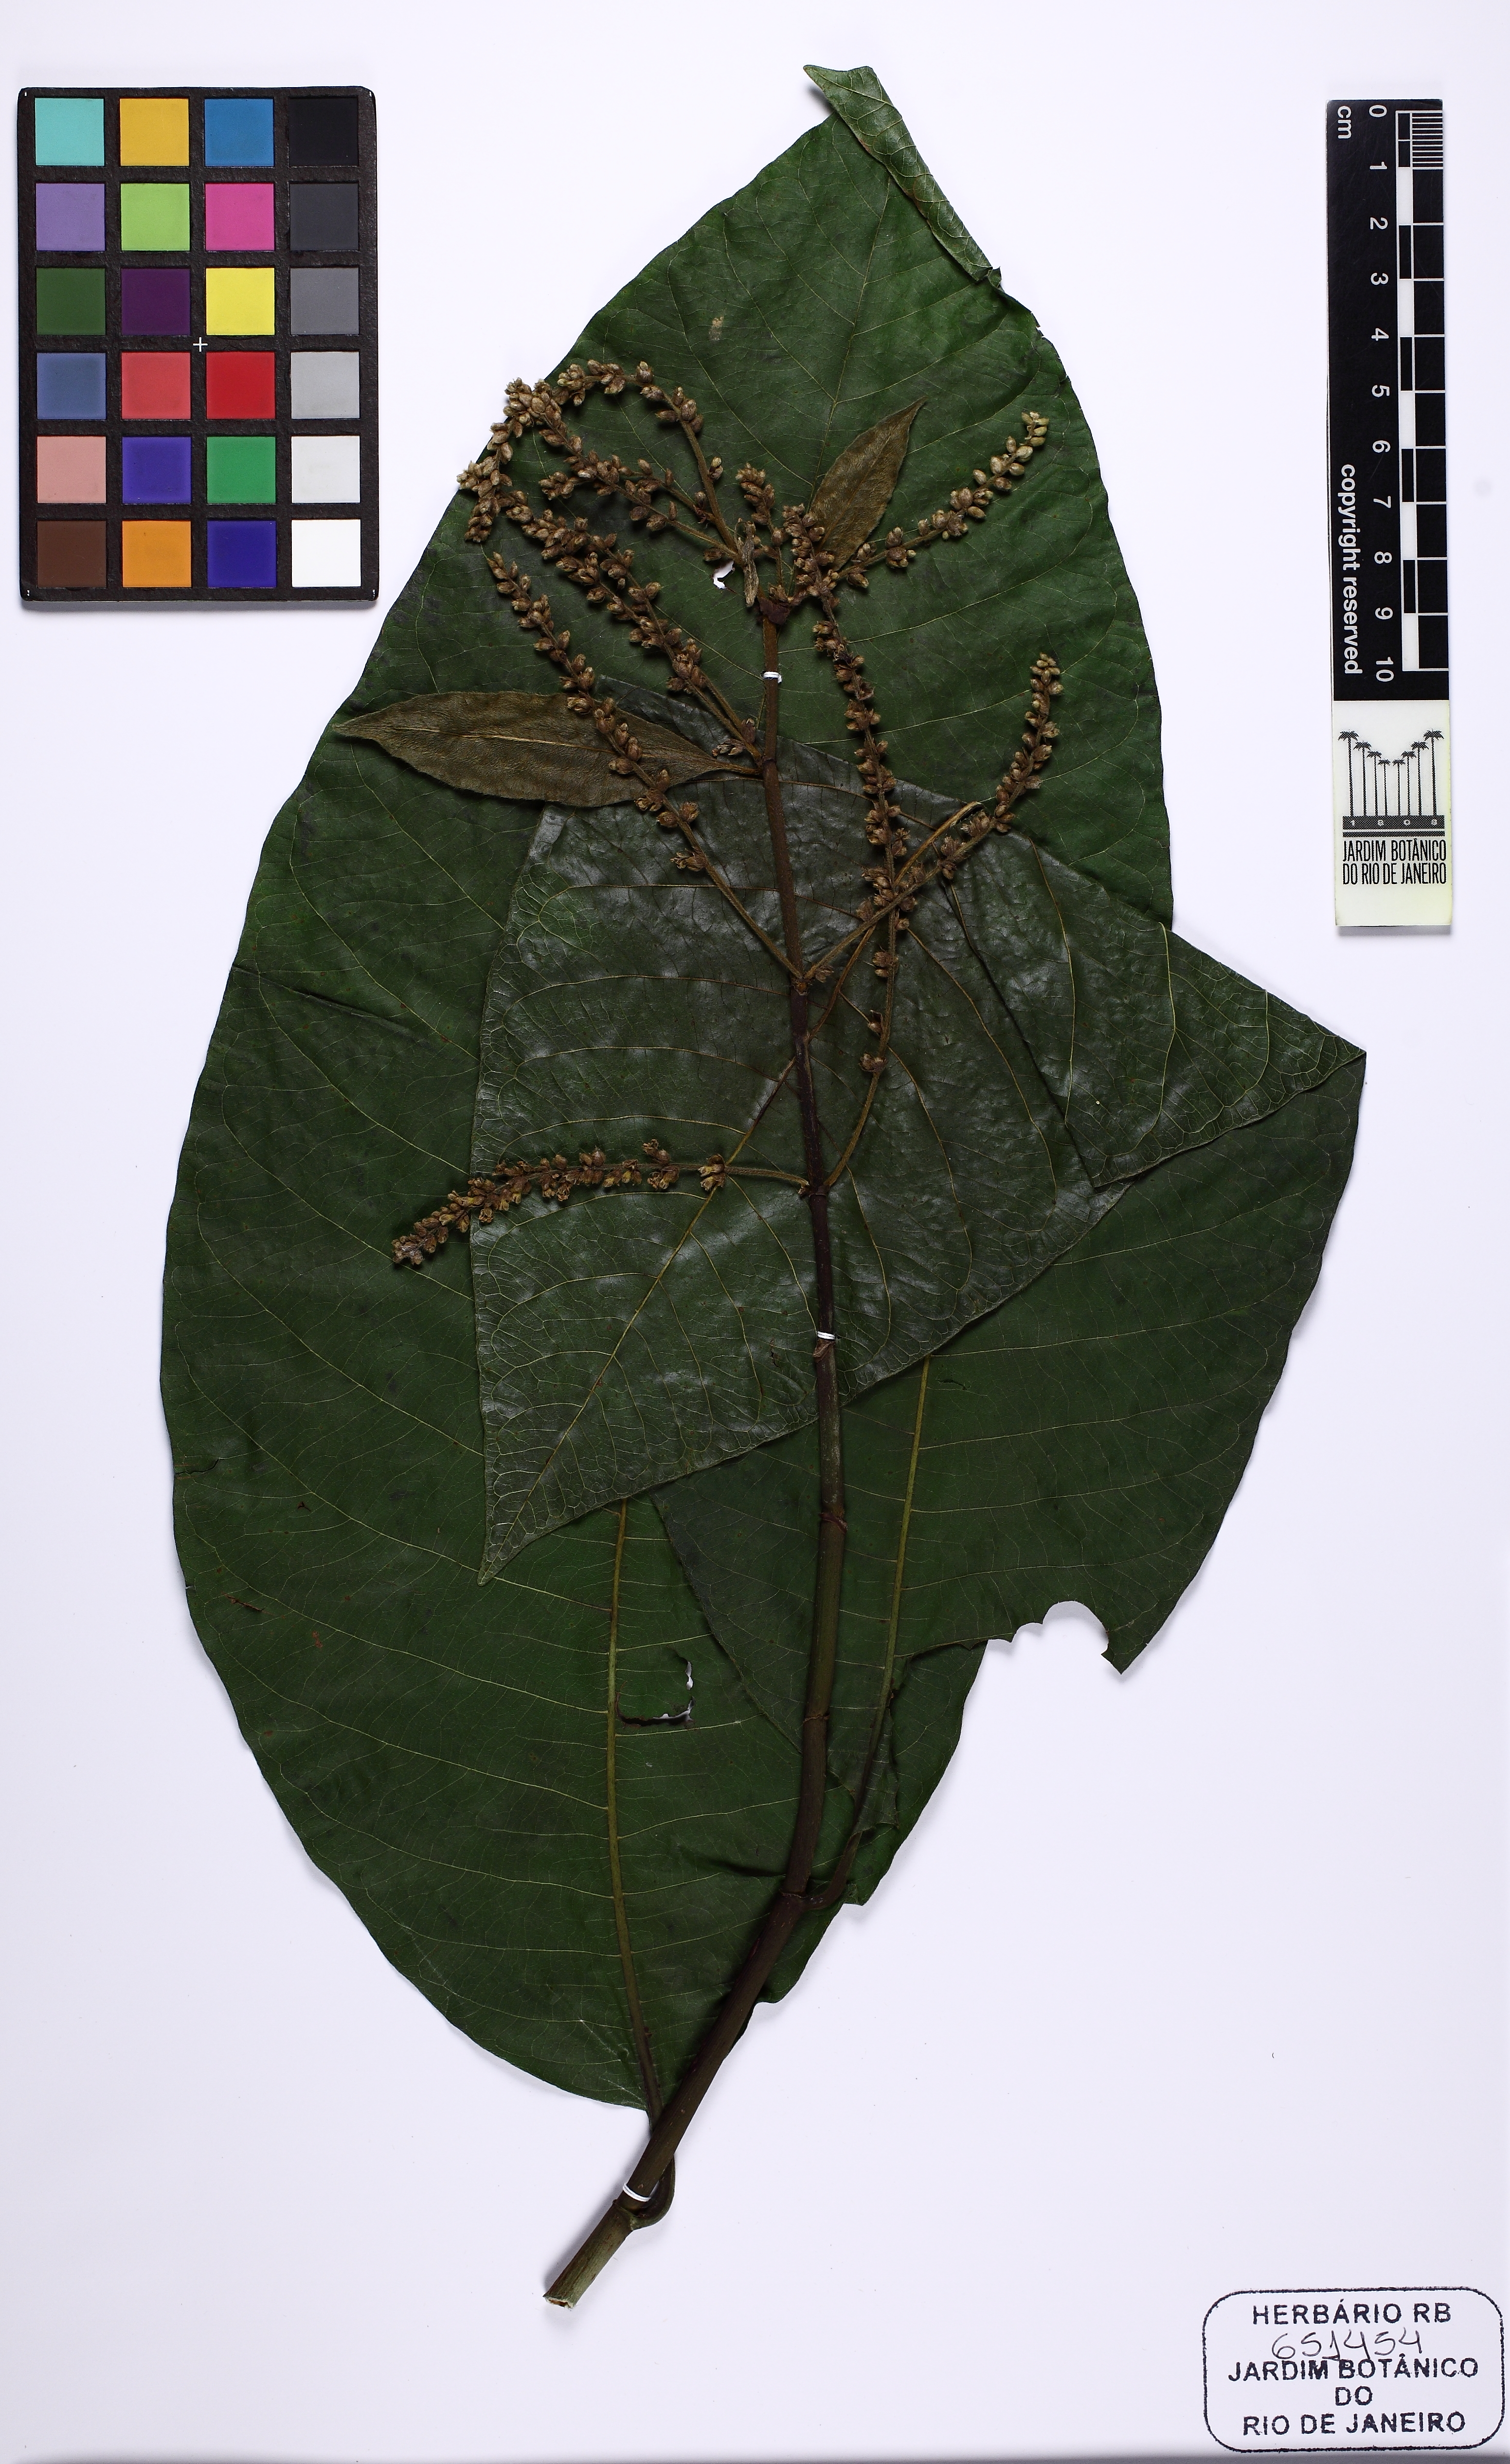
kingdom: Plantae
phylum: Tracheophyta
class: Magnoliopsida
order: Caryophyllales
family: Polygonaceae
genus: Triplaris
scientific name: Triplaris weigeltiana
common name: Long john
